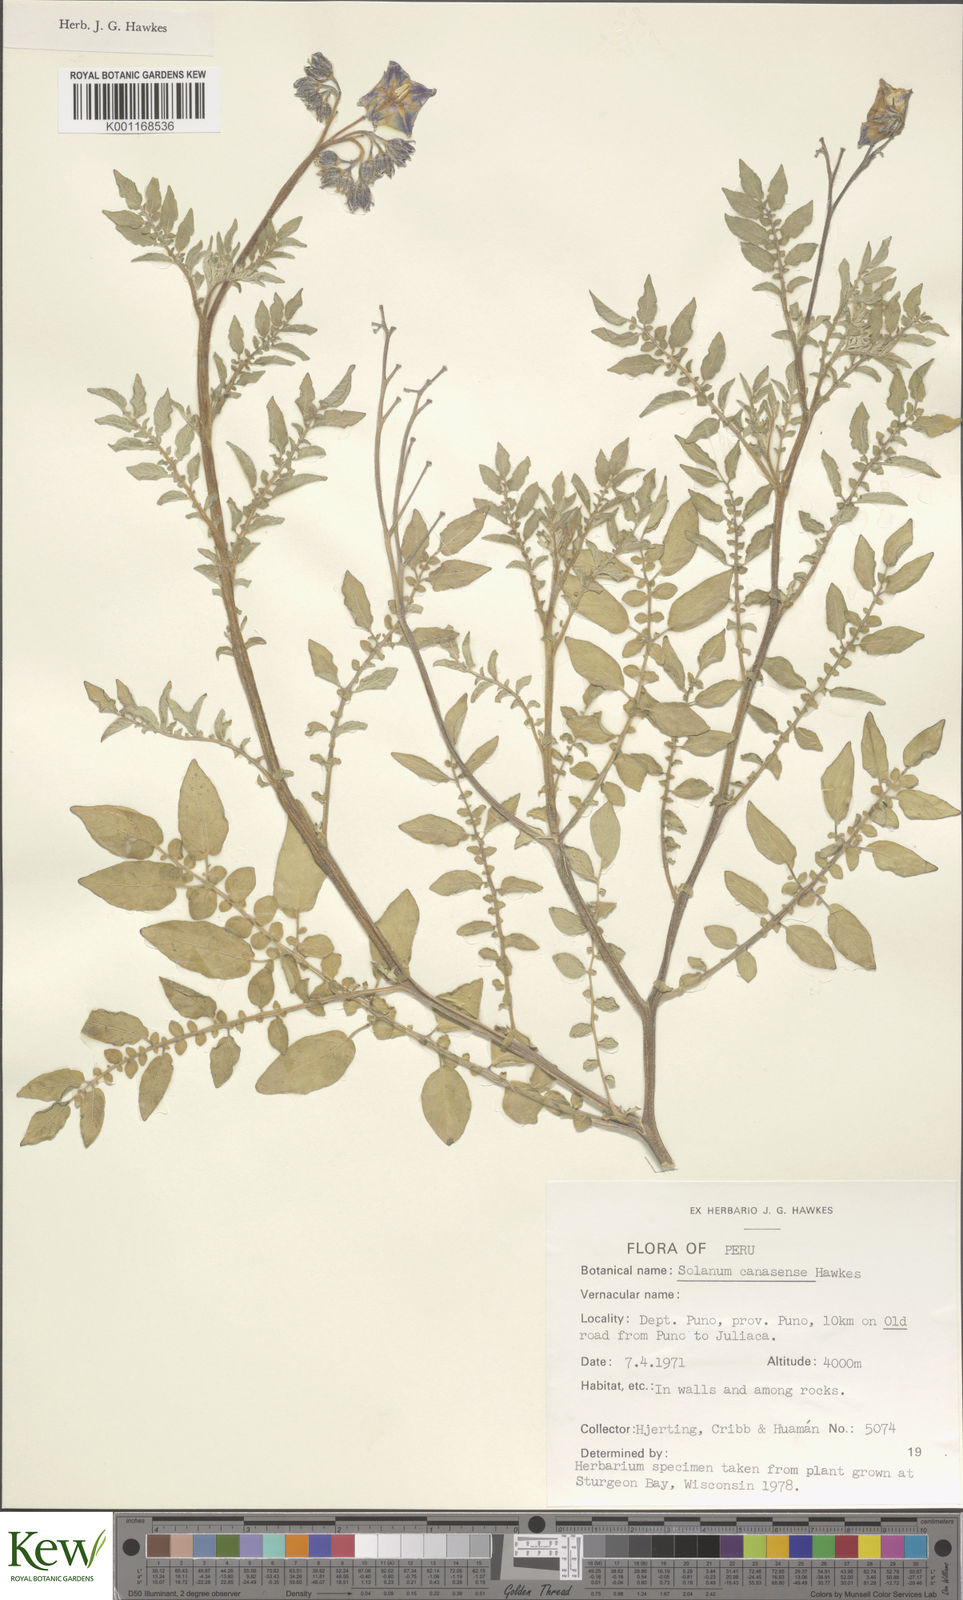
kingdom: Plantae
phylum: Tracheophyta
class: Magnoliopsida
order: Solanales
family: Solanaceae
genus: Solanum
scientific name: Solanum candolleanum
